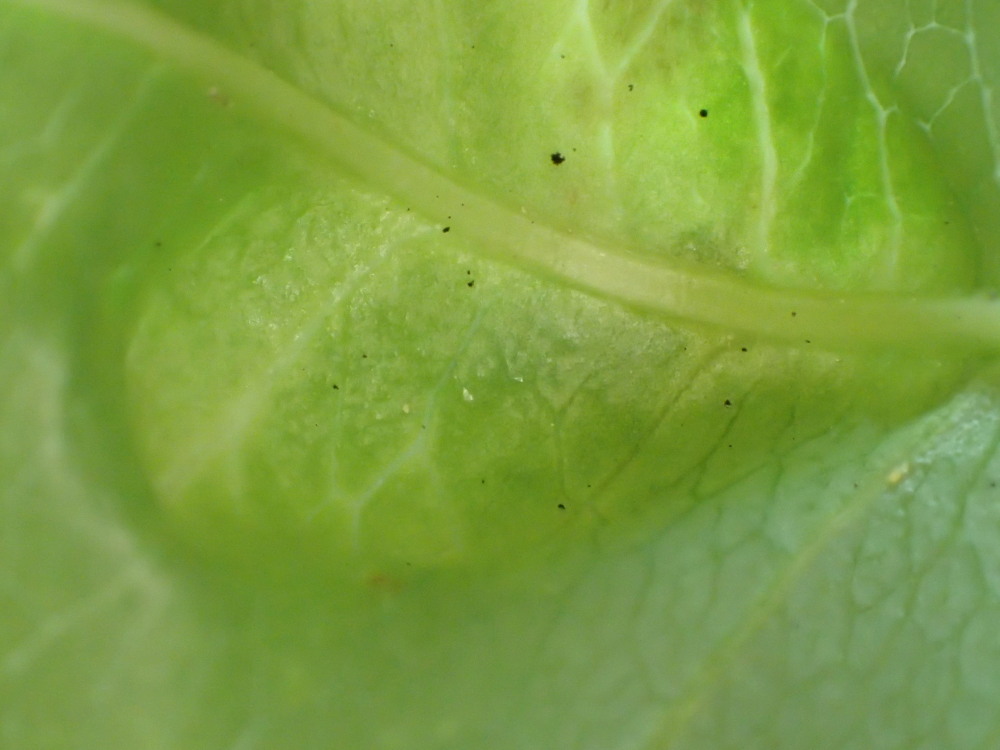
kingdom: Fungi
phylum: Ascomycota
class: Taphrinomycetes
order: Taphrinales
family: Taphrinaceae
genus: Taphrina
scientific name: Taphrina farlowii
